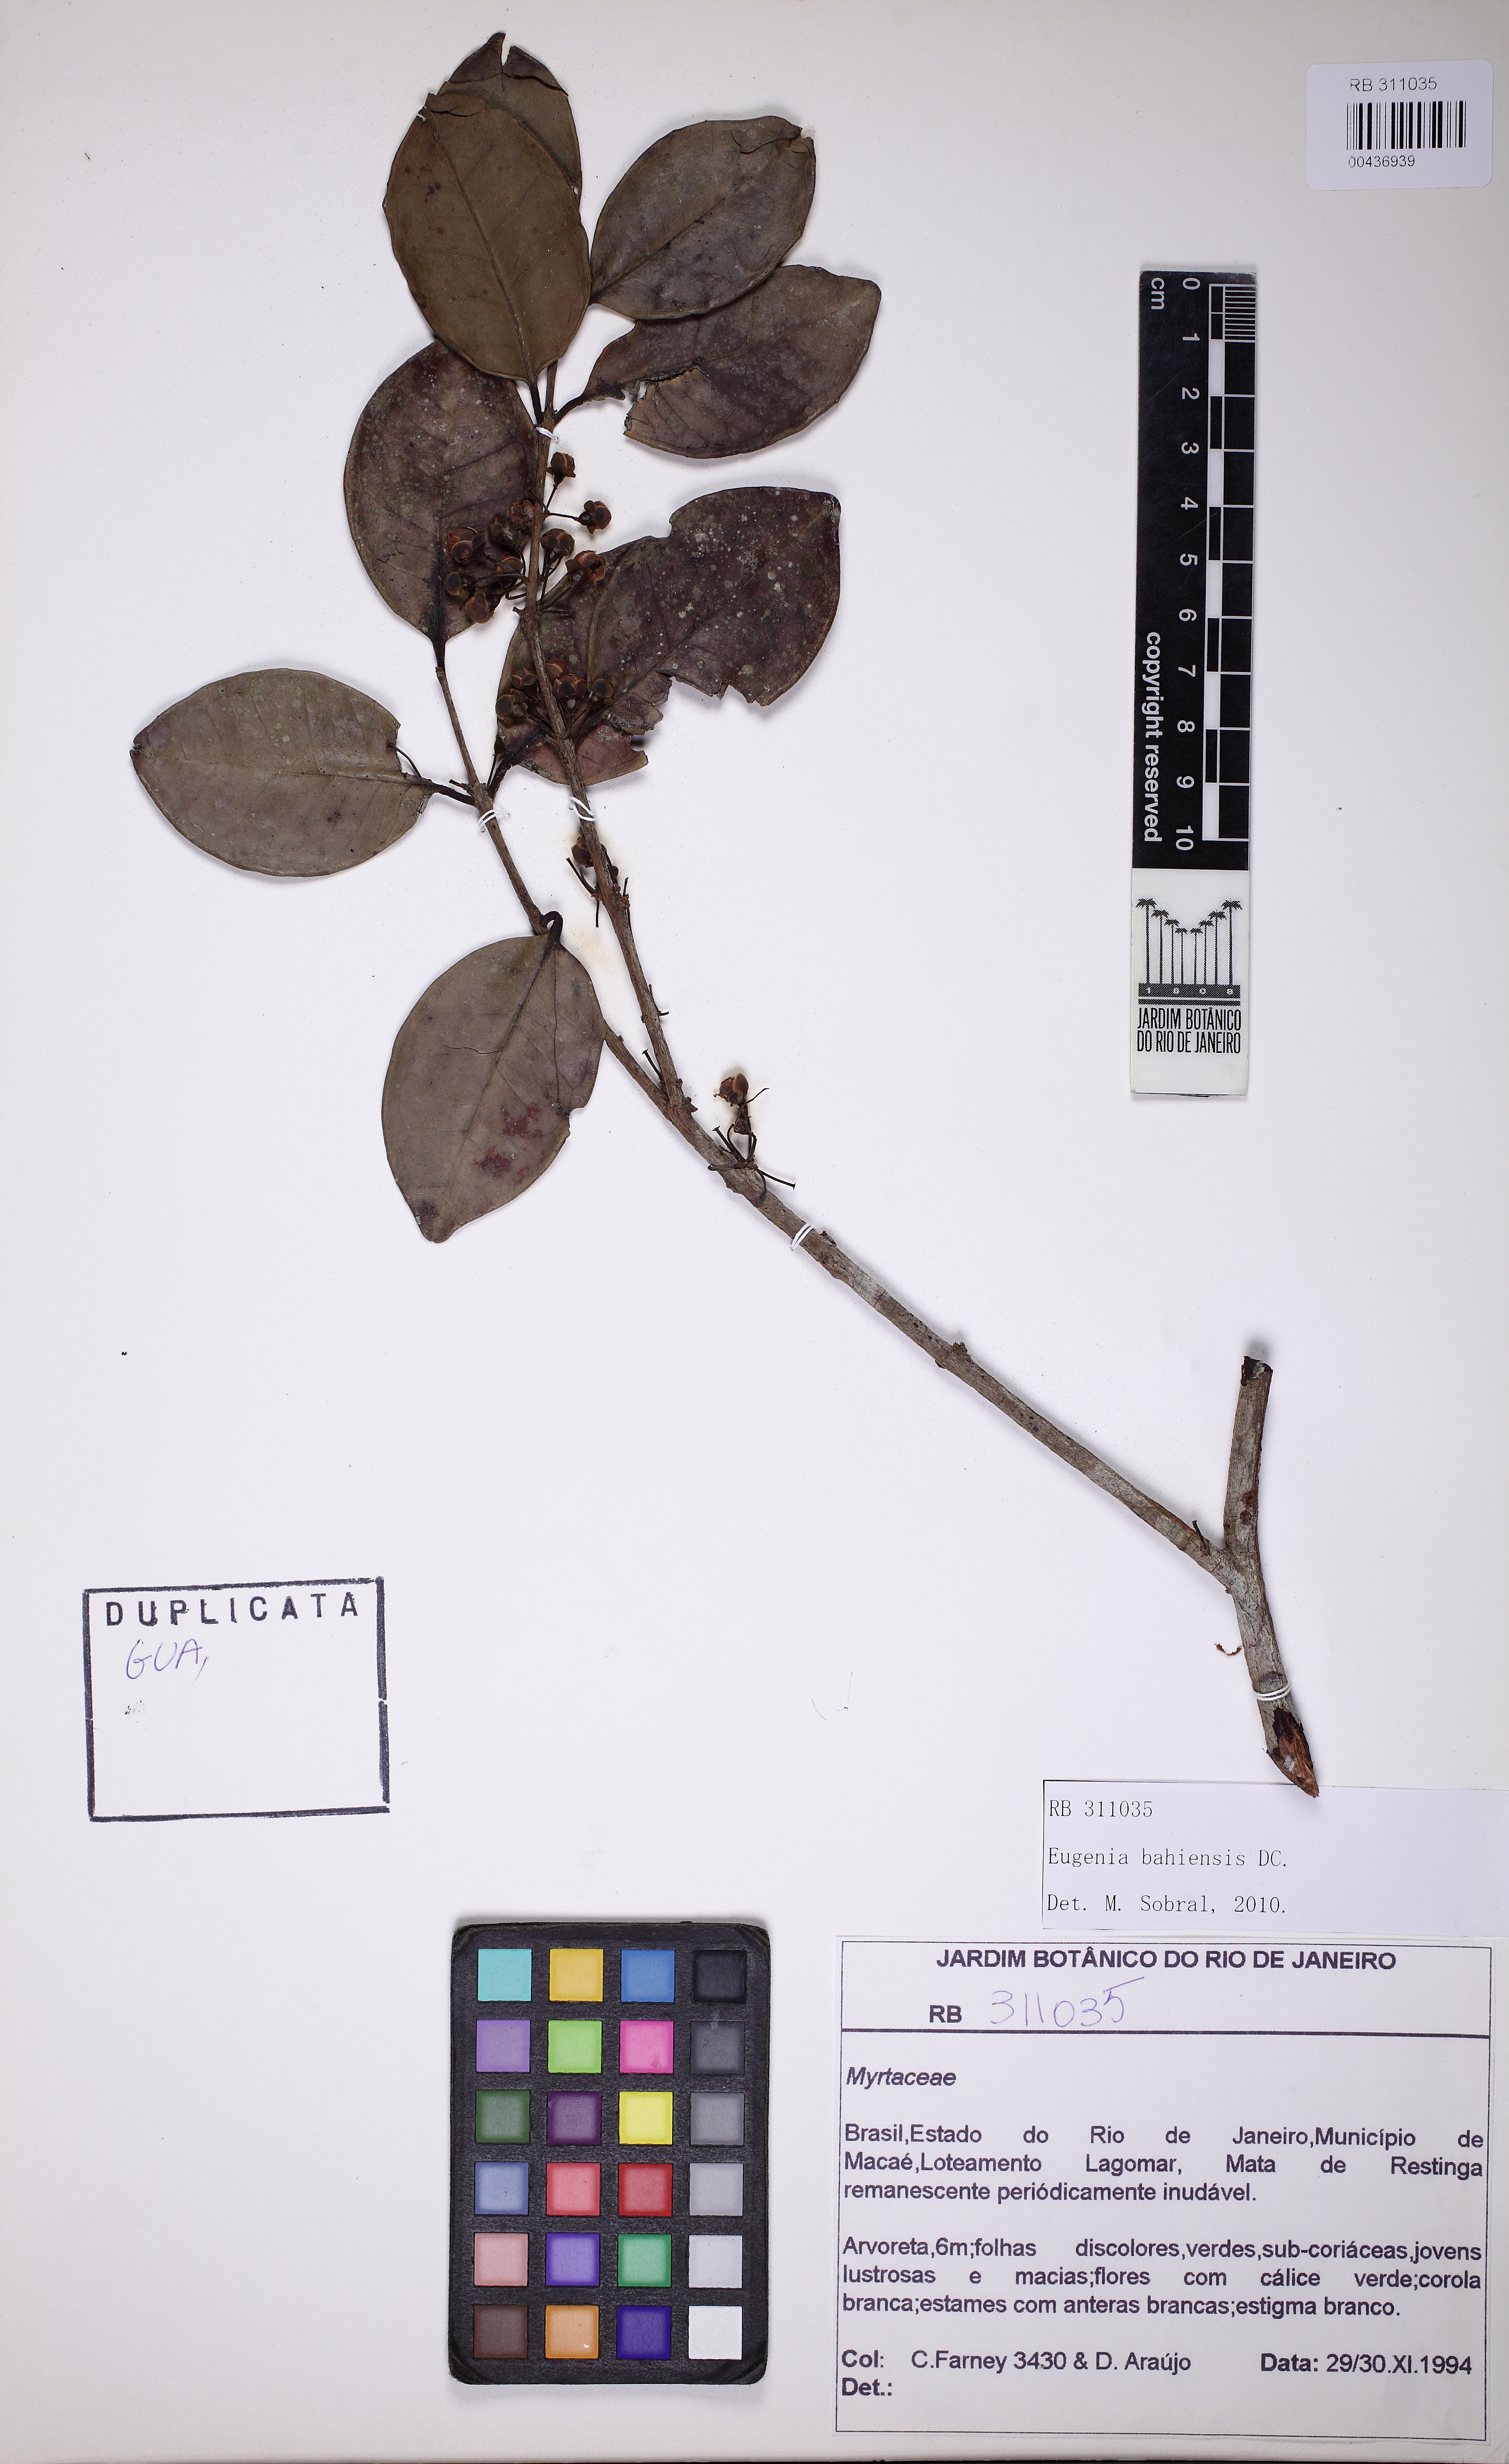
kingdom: Plantae
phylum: Tracheophyta
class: Magnoliopsida
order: Myrtales
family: Myrtaceae
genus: Eugenia
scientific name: Eugenia bahiensis
